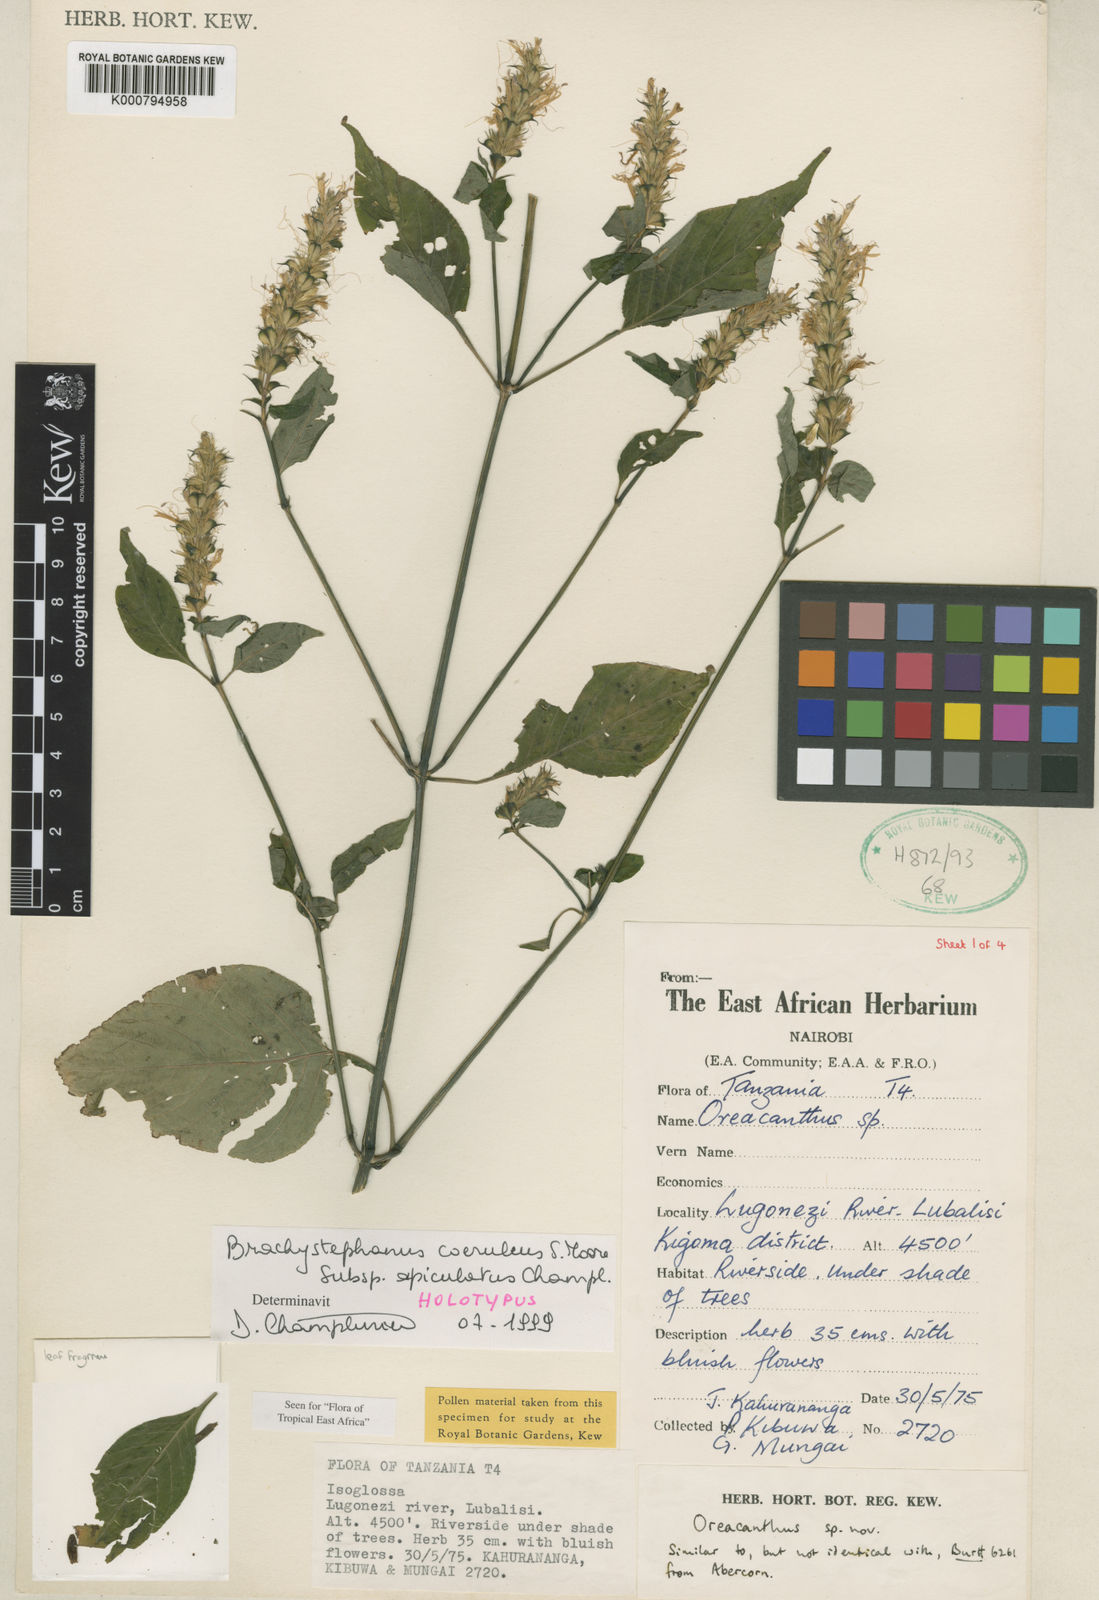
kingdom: Plantae
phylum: Tracheophyta
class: Magnoliopsida
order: Lamiales
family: Acanthaceae
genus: Brachystephanus
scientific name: Brachystephanus coeruleus
